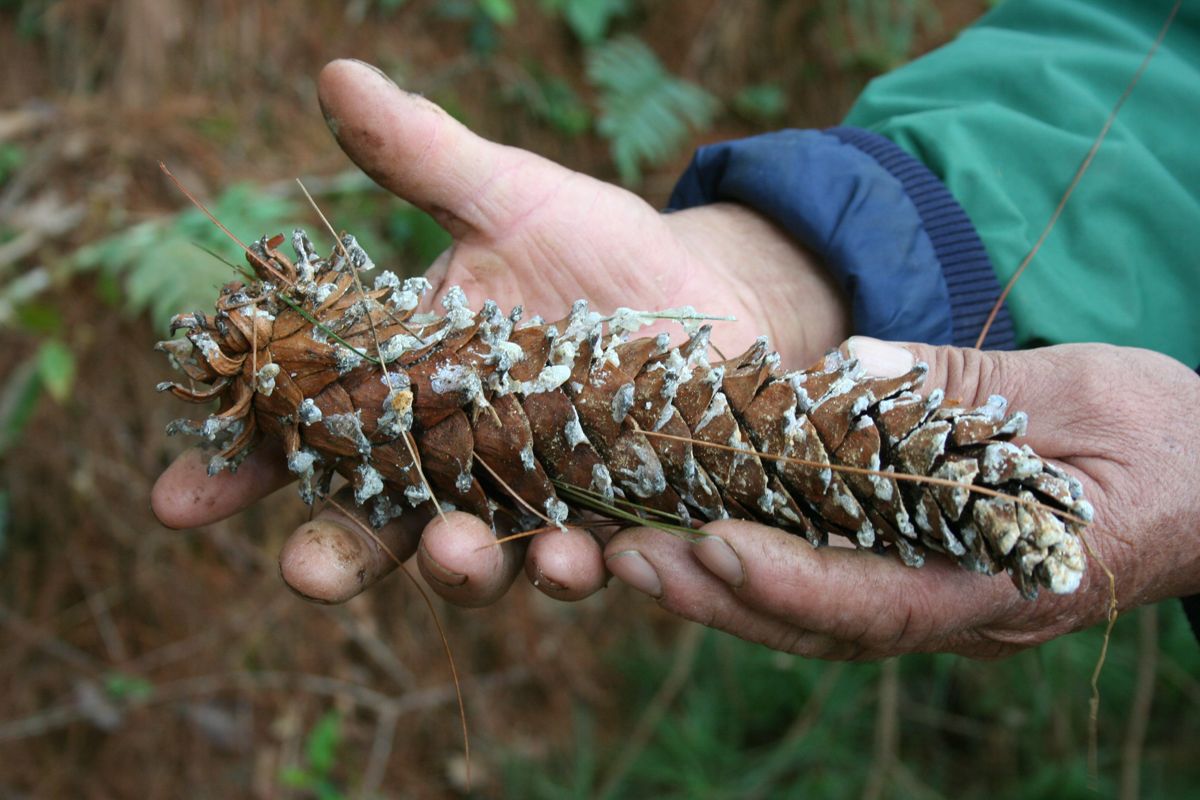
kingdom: Plantae
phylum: Tracheophyta
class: Pinopsida
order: Pinales
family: Pinaceae
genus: Pinus
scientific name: Pinus ayacahuite
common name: Mexican white pine
